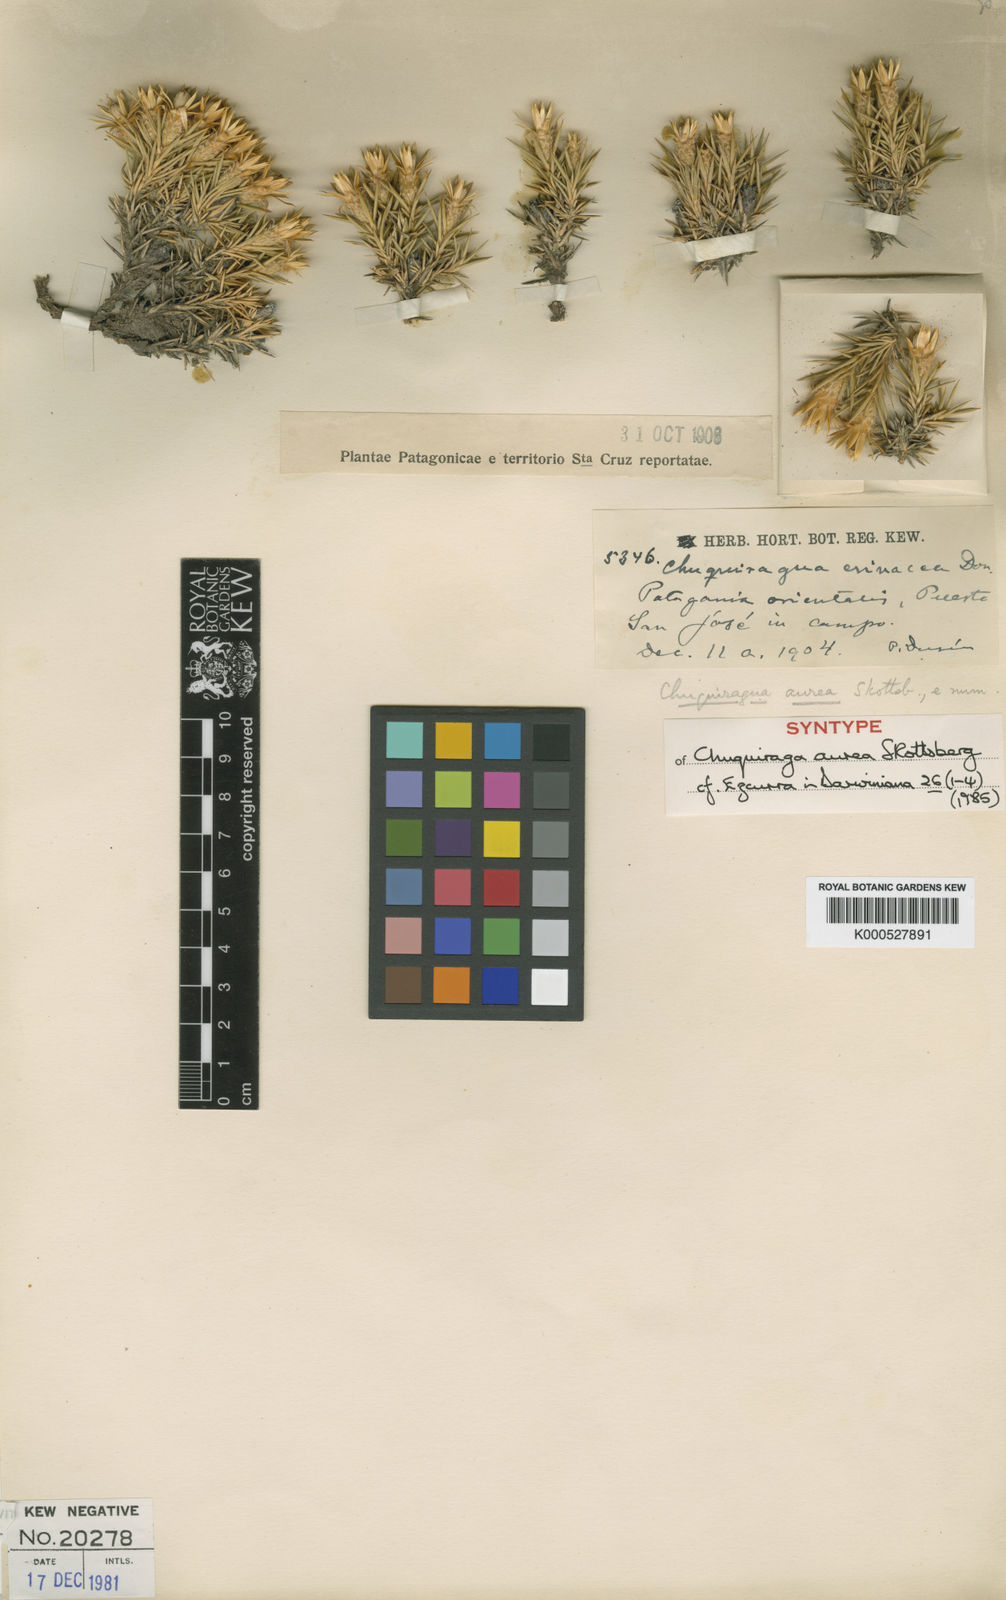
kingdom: Plantae
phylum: Tracheophyta
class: Magnoliopsida
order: Asterales
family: Asteraceae
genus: Chuquiraga
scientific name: Chuquiraga aurea
